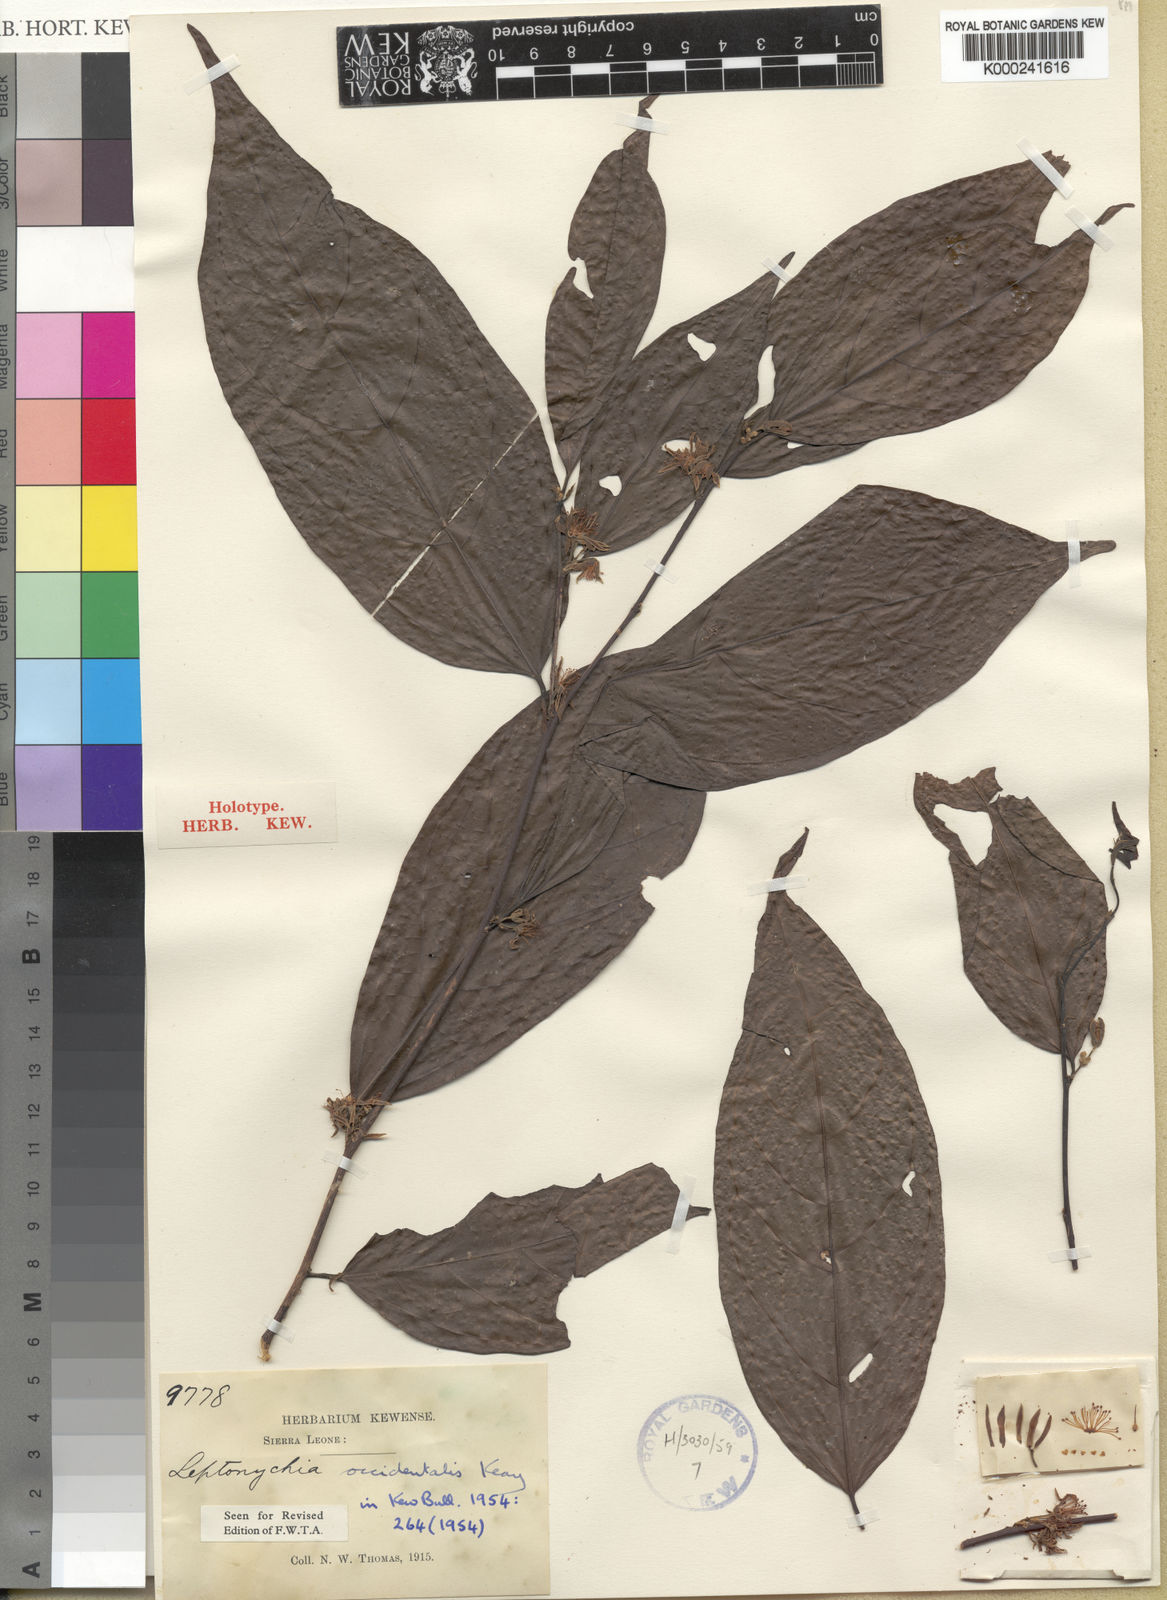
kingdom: Plantae
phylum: Tracheophyta
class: Magnoliopsida
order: Malvales
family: Malvaceae
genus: Leptonychia
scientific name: Leptonychia occidentalis
